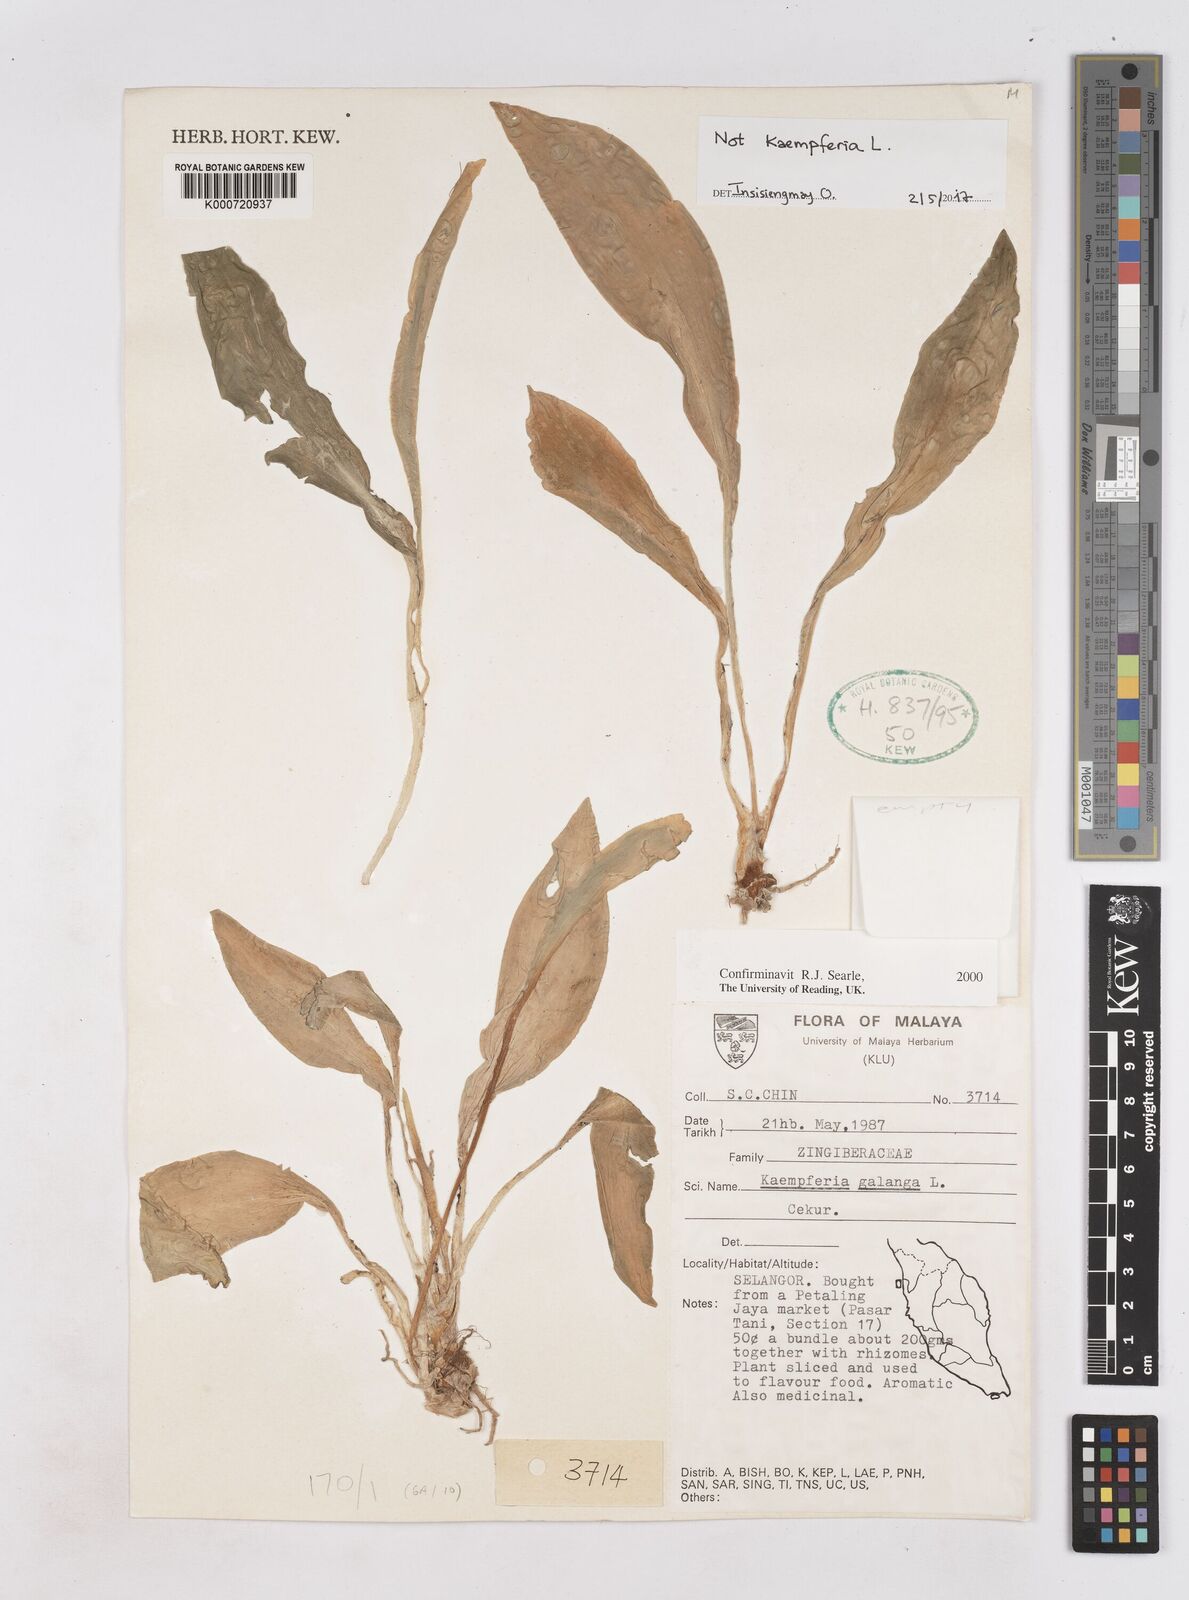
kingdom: Plantae
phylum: Tracheophyta
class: Liliopsida
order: Zingiberales
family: Zingiberaceae
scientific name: Zingiberaceae
